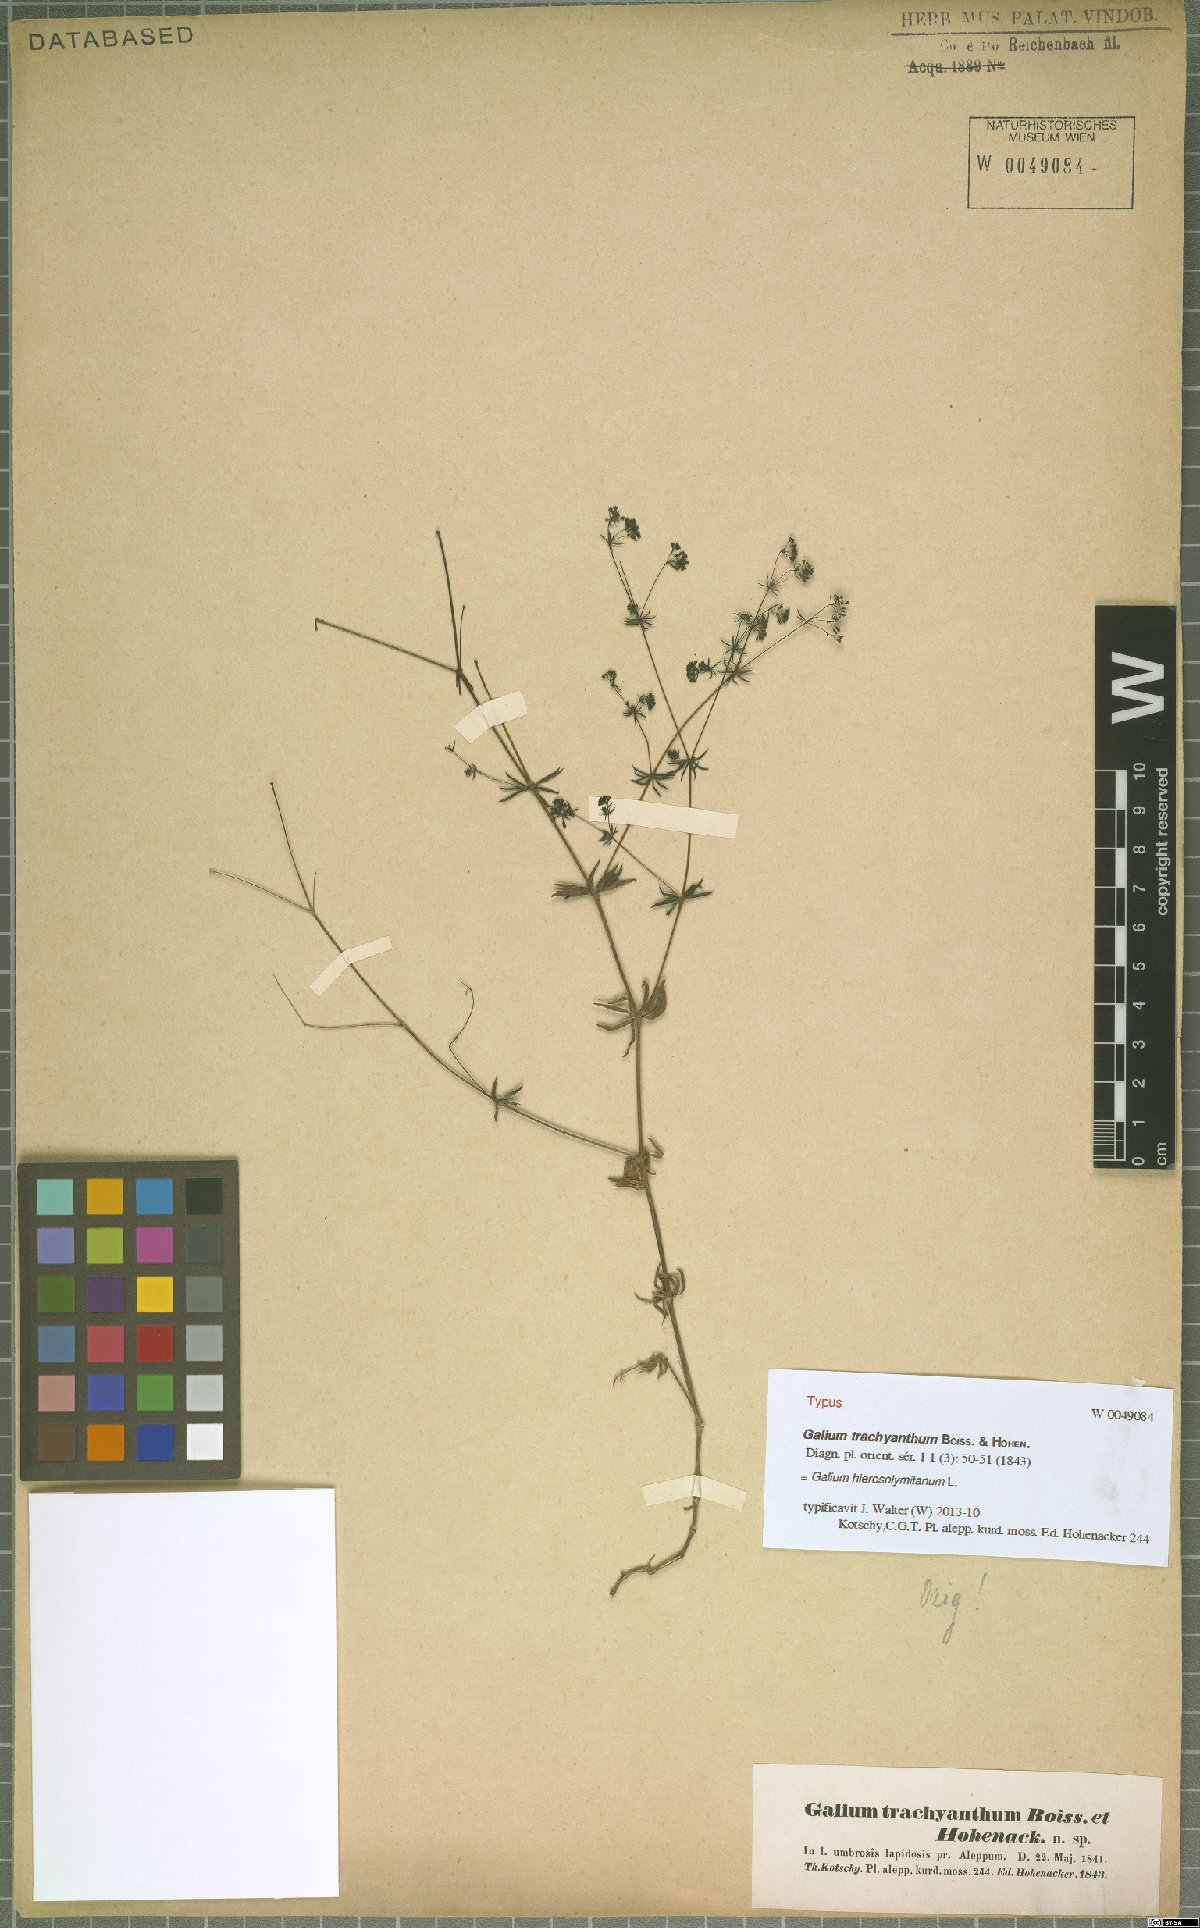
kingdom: Plantae
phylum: Tracheophyta
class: Magnoliopsida
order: Gentianales
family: Rubiaceae
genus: Galium
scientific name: Galium hierosolymitanum
